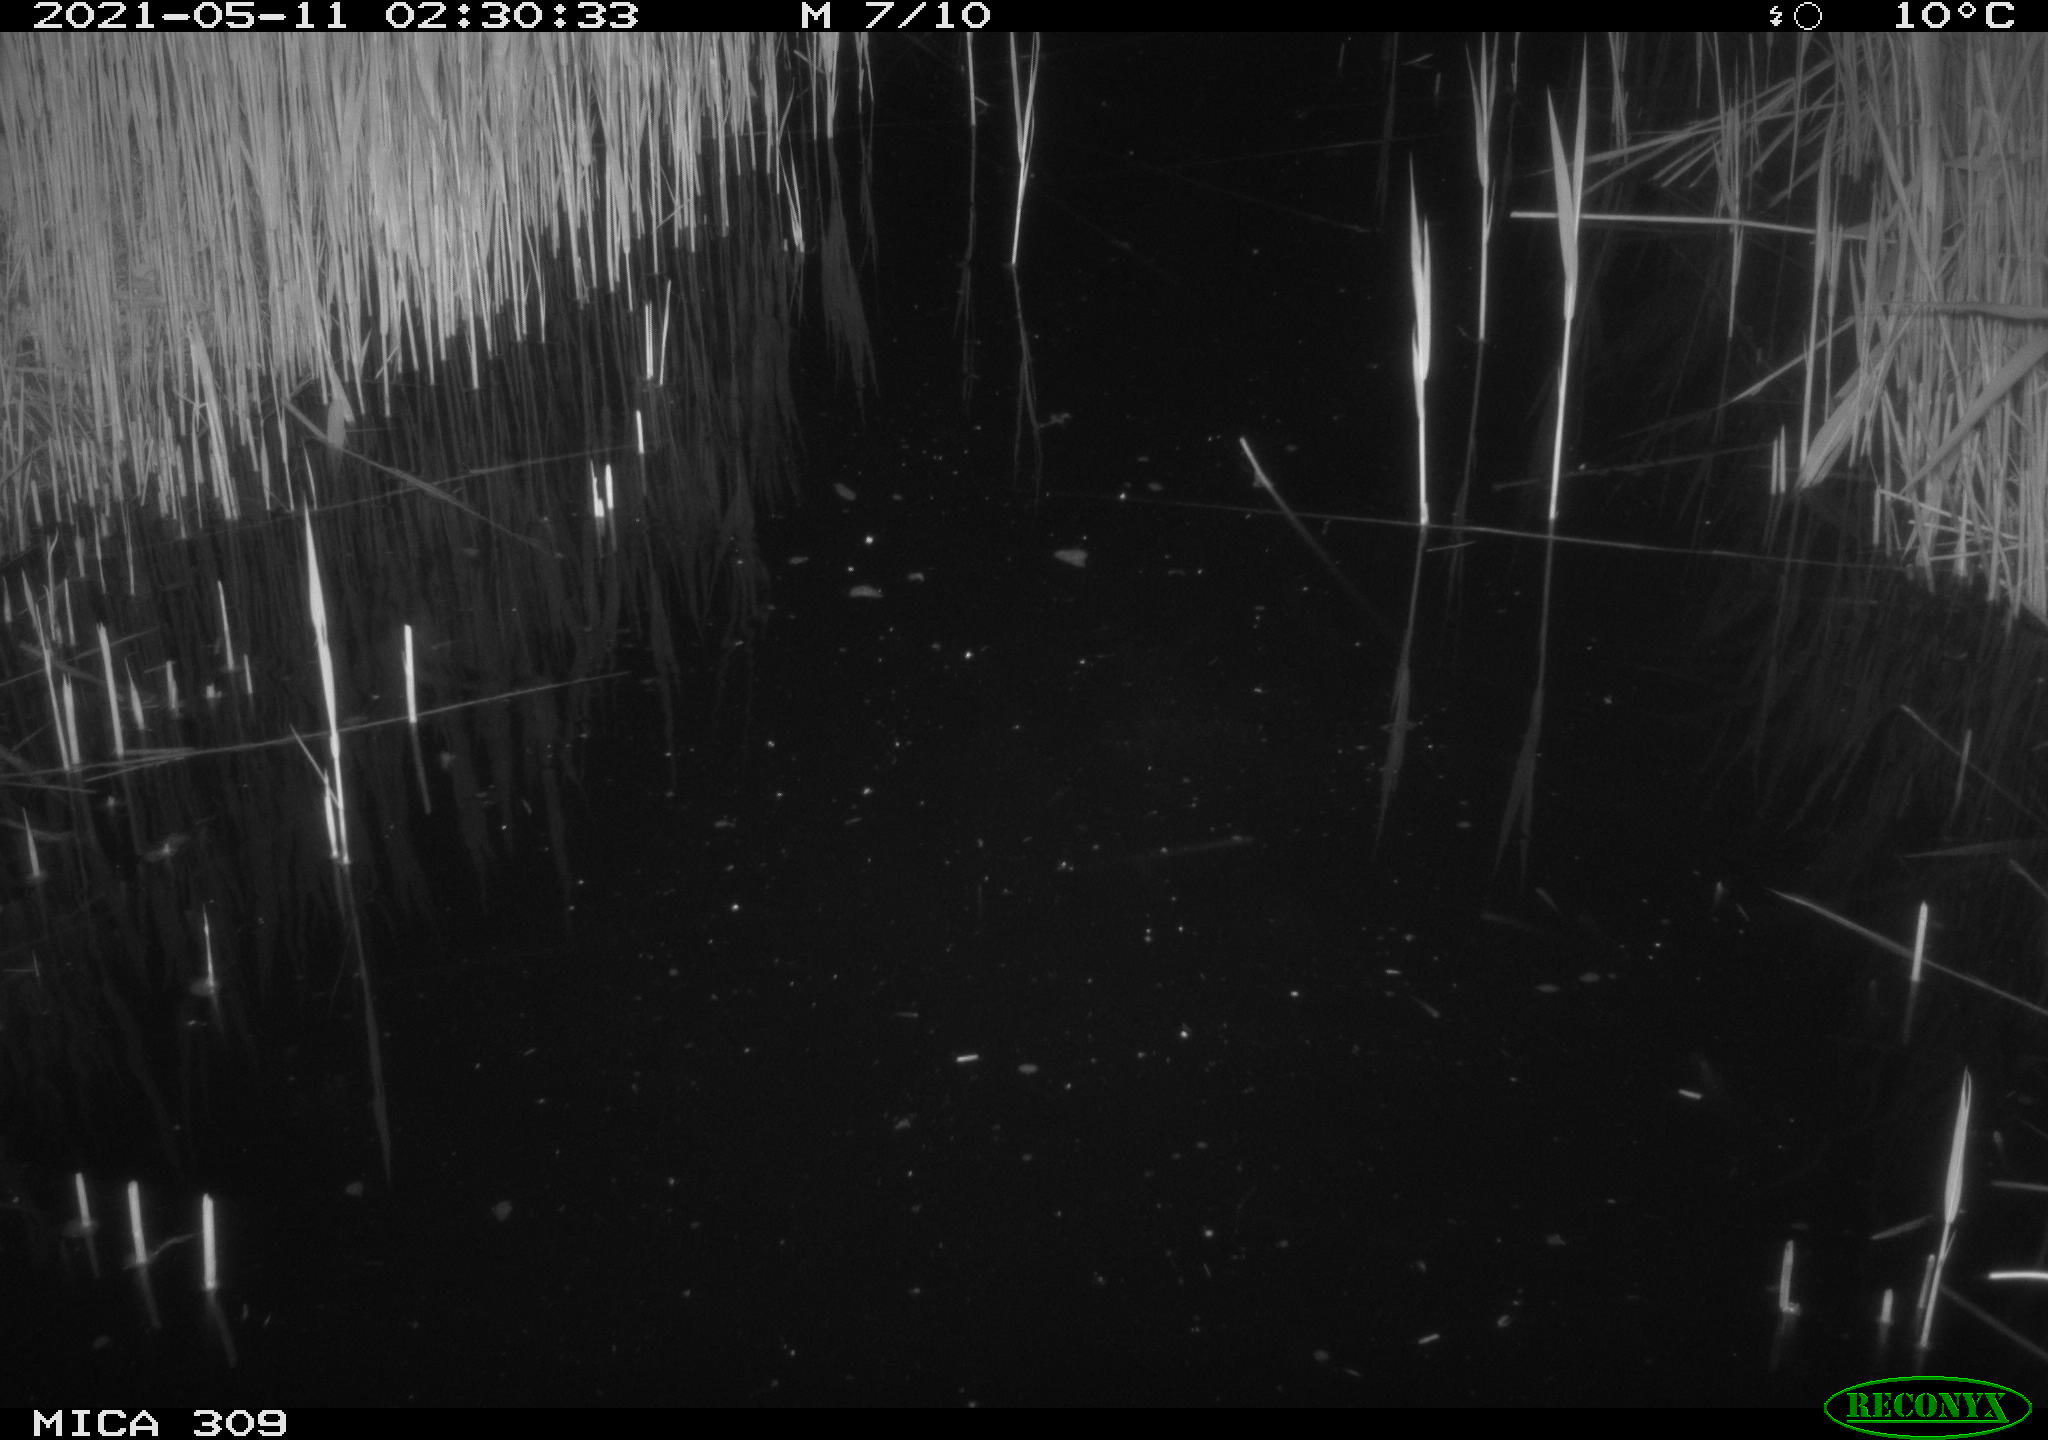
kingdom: Animalia
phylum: Chordata
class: Aves
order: Anseriformes
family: Anatidae
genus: Anas
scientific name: Anas platyrhynchos
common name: Mallard
